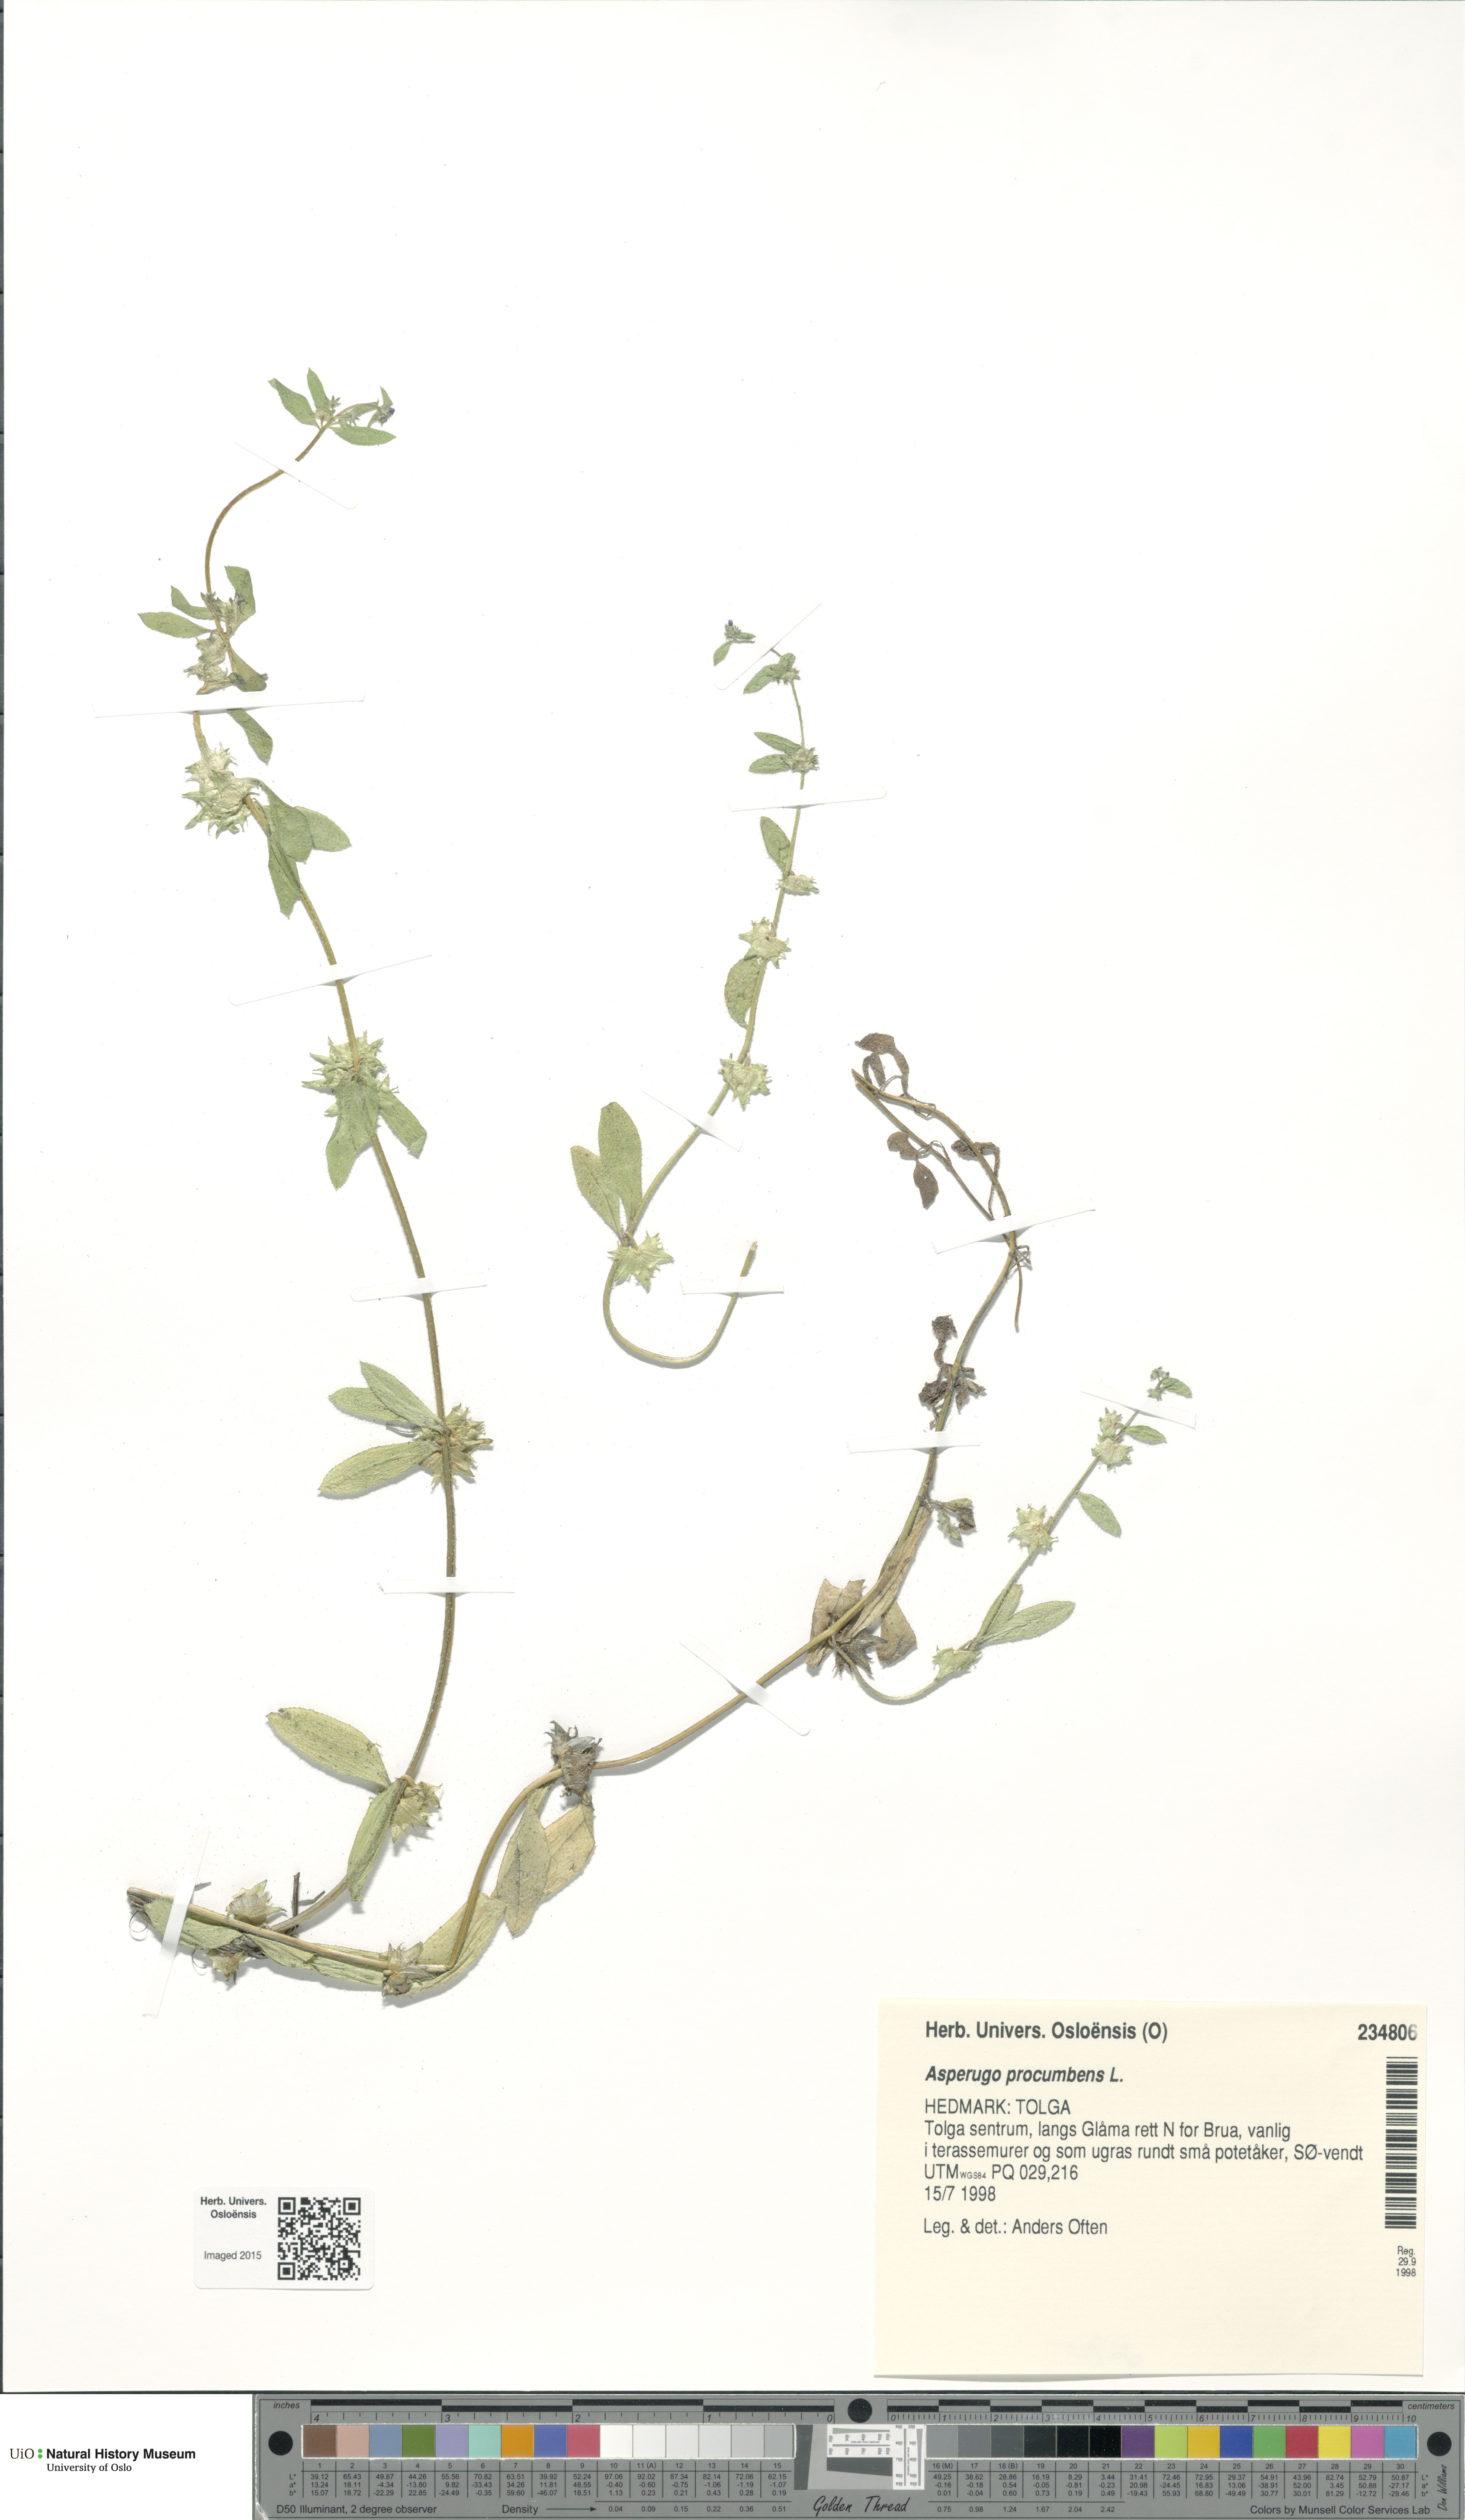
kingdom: Plantae
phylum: Tracheophyta
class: Magnoliopsida
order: Boraginales
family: Boraginaceae
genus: Asperugo
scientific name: Asperugo procumbens
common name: Madwort
